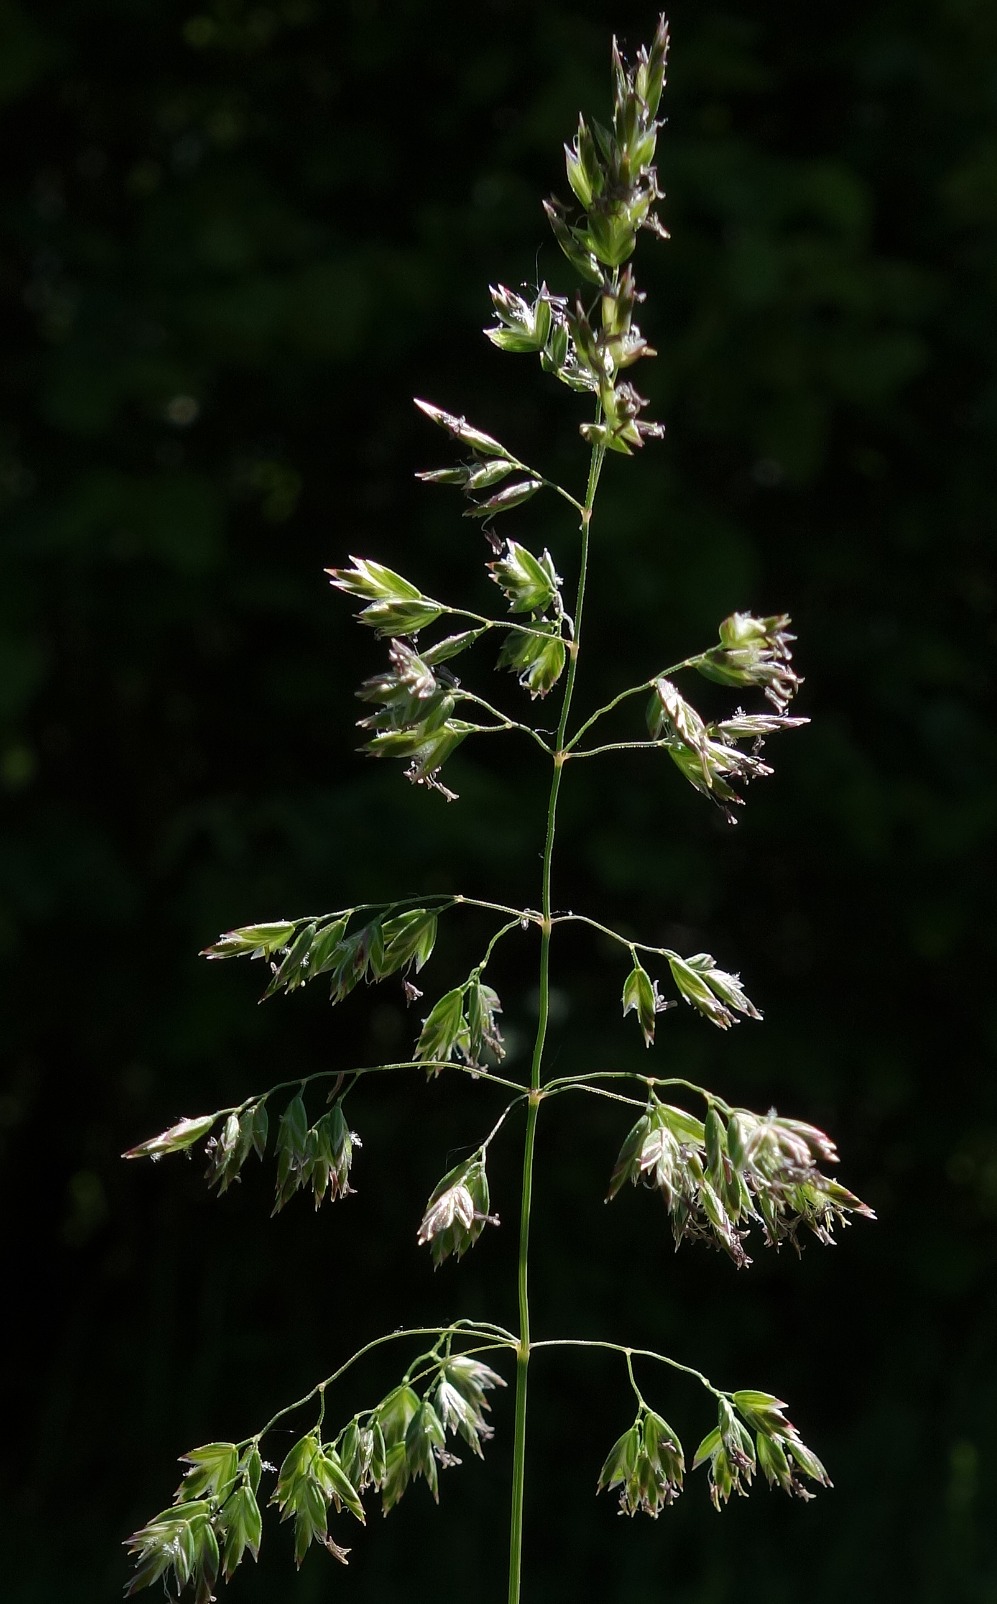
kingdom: Plantae
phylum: Tracheophyta
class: Liliopsida
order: Poales
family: Poaceae
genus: Poa
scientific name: Poa trivialis
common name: Almindelig rapgræs
